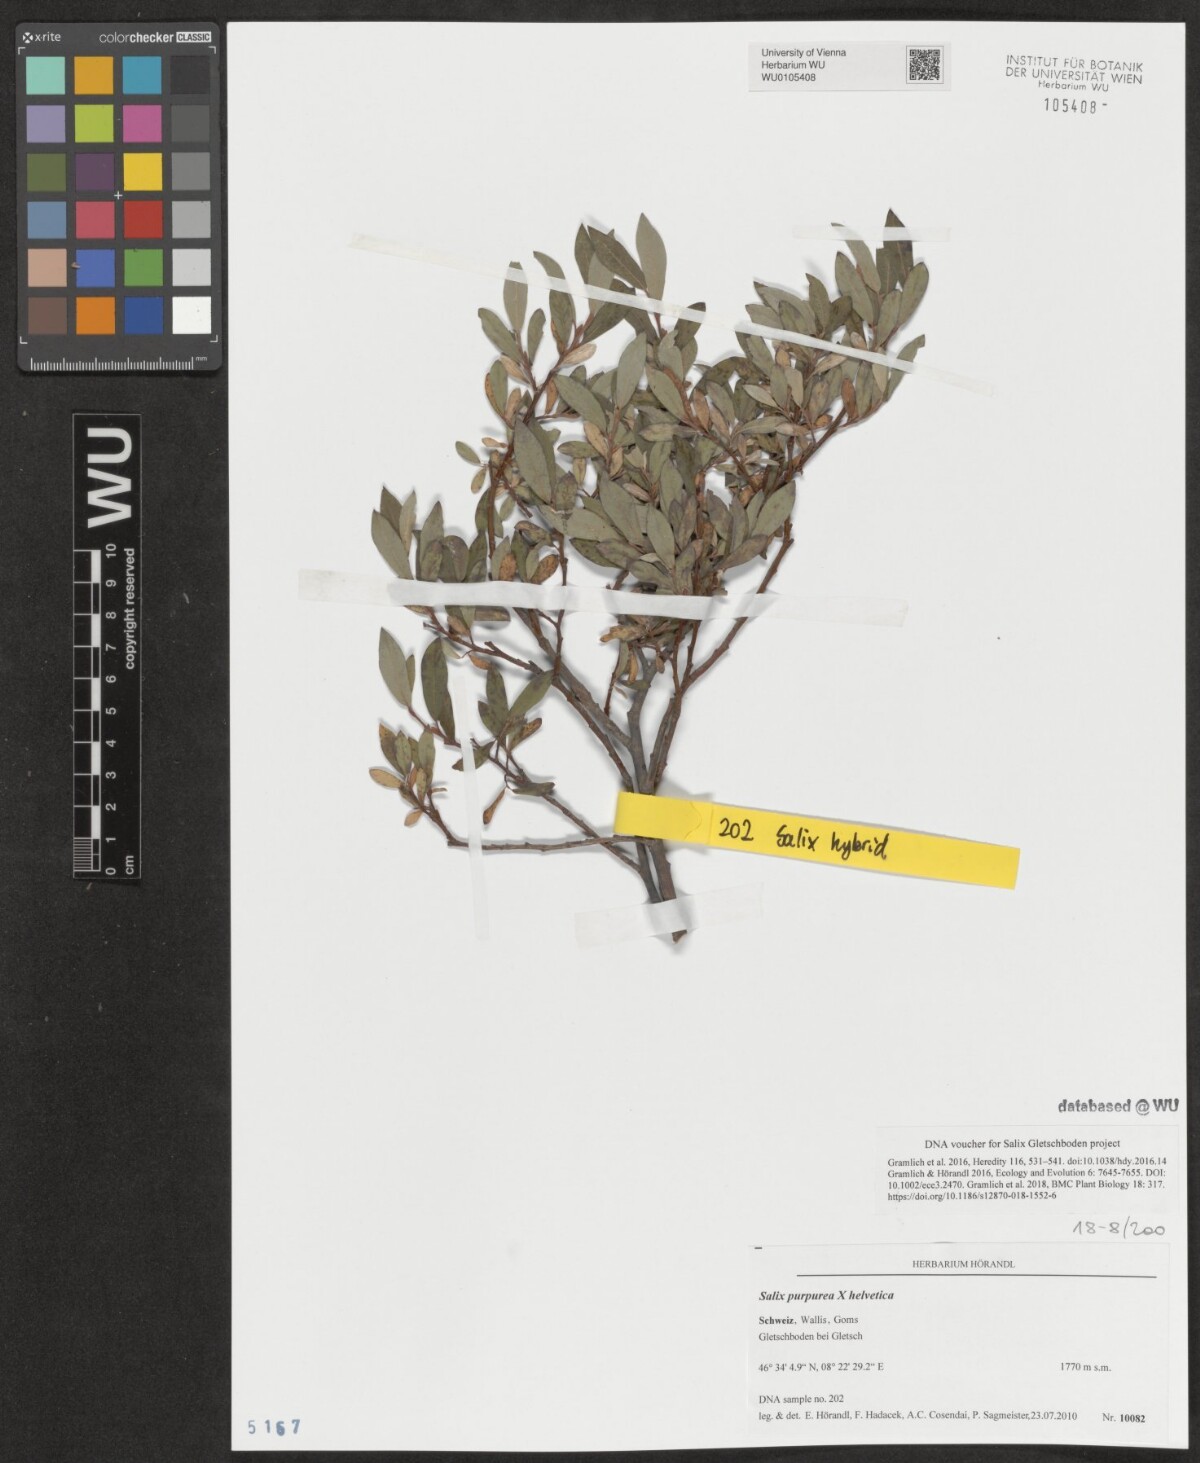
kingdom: Plantae
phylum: Tracheophyta
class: Magnoliopsida
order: Malpighiales
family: Salicaceae
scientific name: Salicaceae
